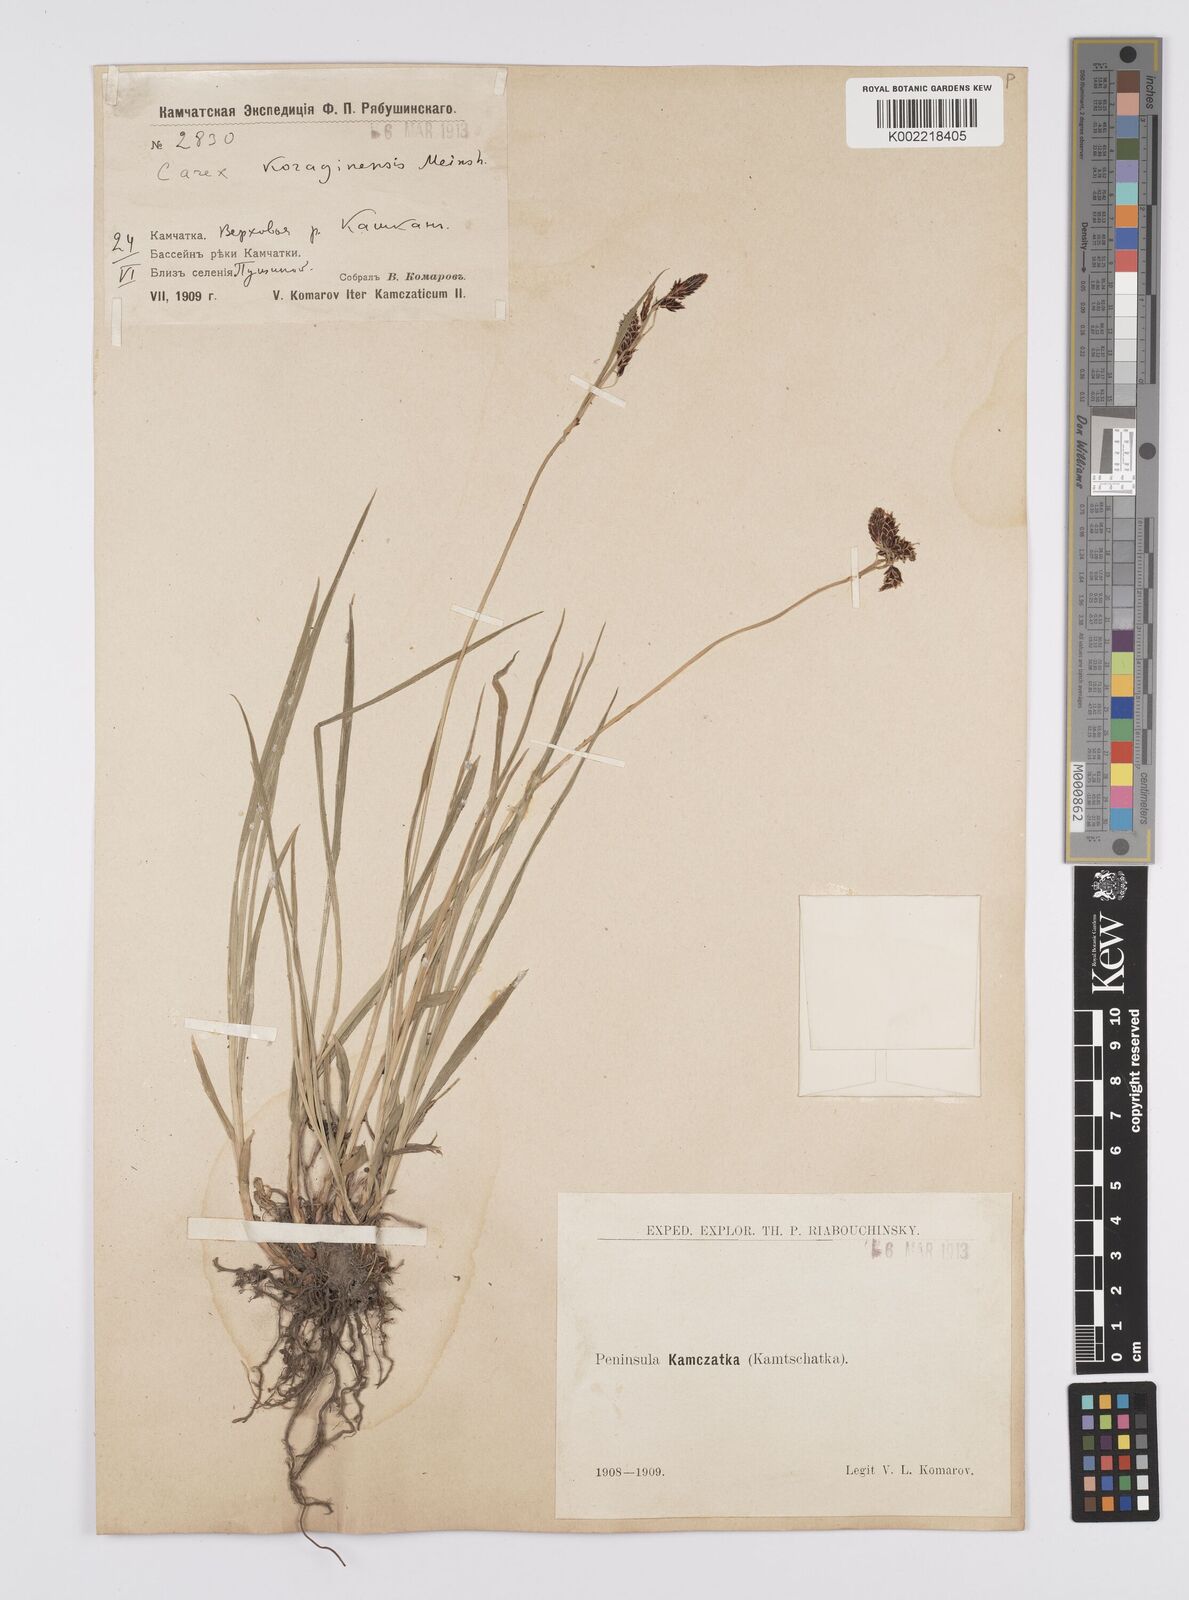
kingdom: Plantae
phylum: Tracheophyta
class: Liliopsida
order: Poales
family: Cyperaceae
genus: Carex
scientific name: Carex scita
